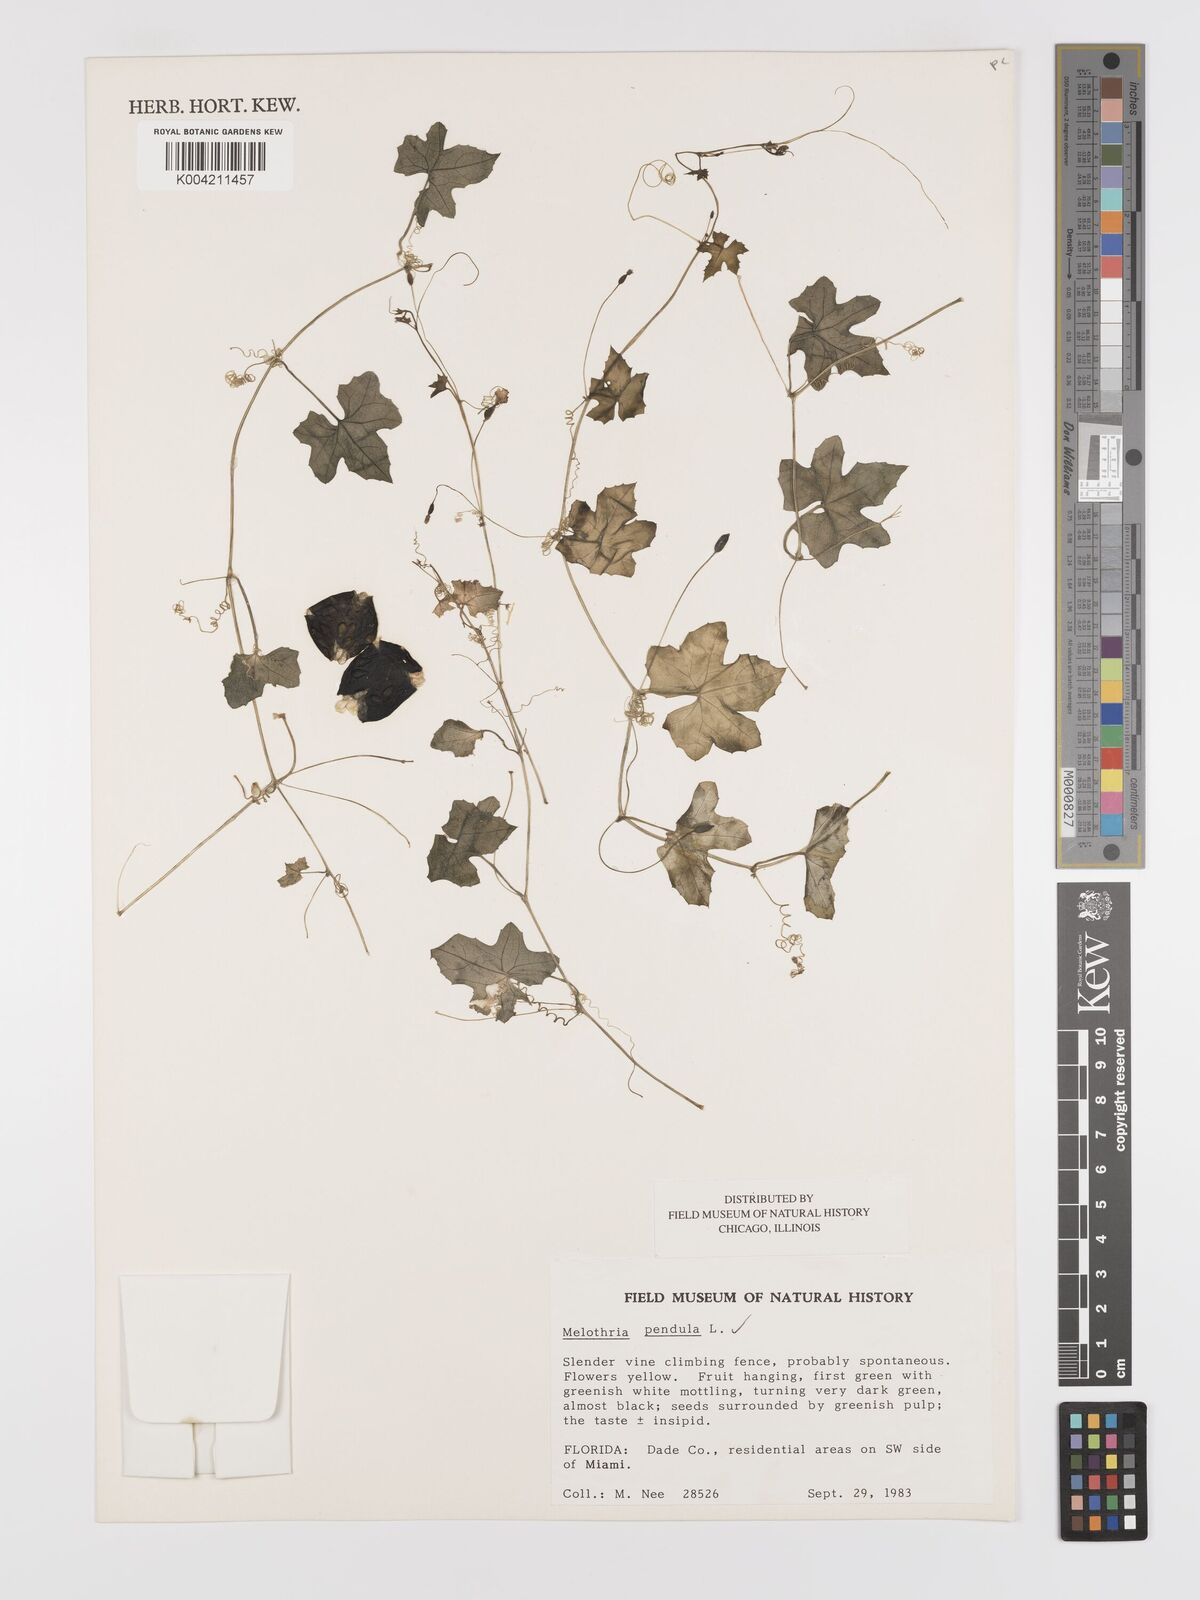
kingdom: Plantae
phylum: Tracheophyta
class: Magnoliopsida
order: Cucurbitales
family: Cucurbitaceae
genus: Melothria
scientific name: Melothria pendula
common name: Creeping-cucumber
